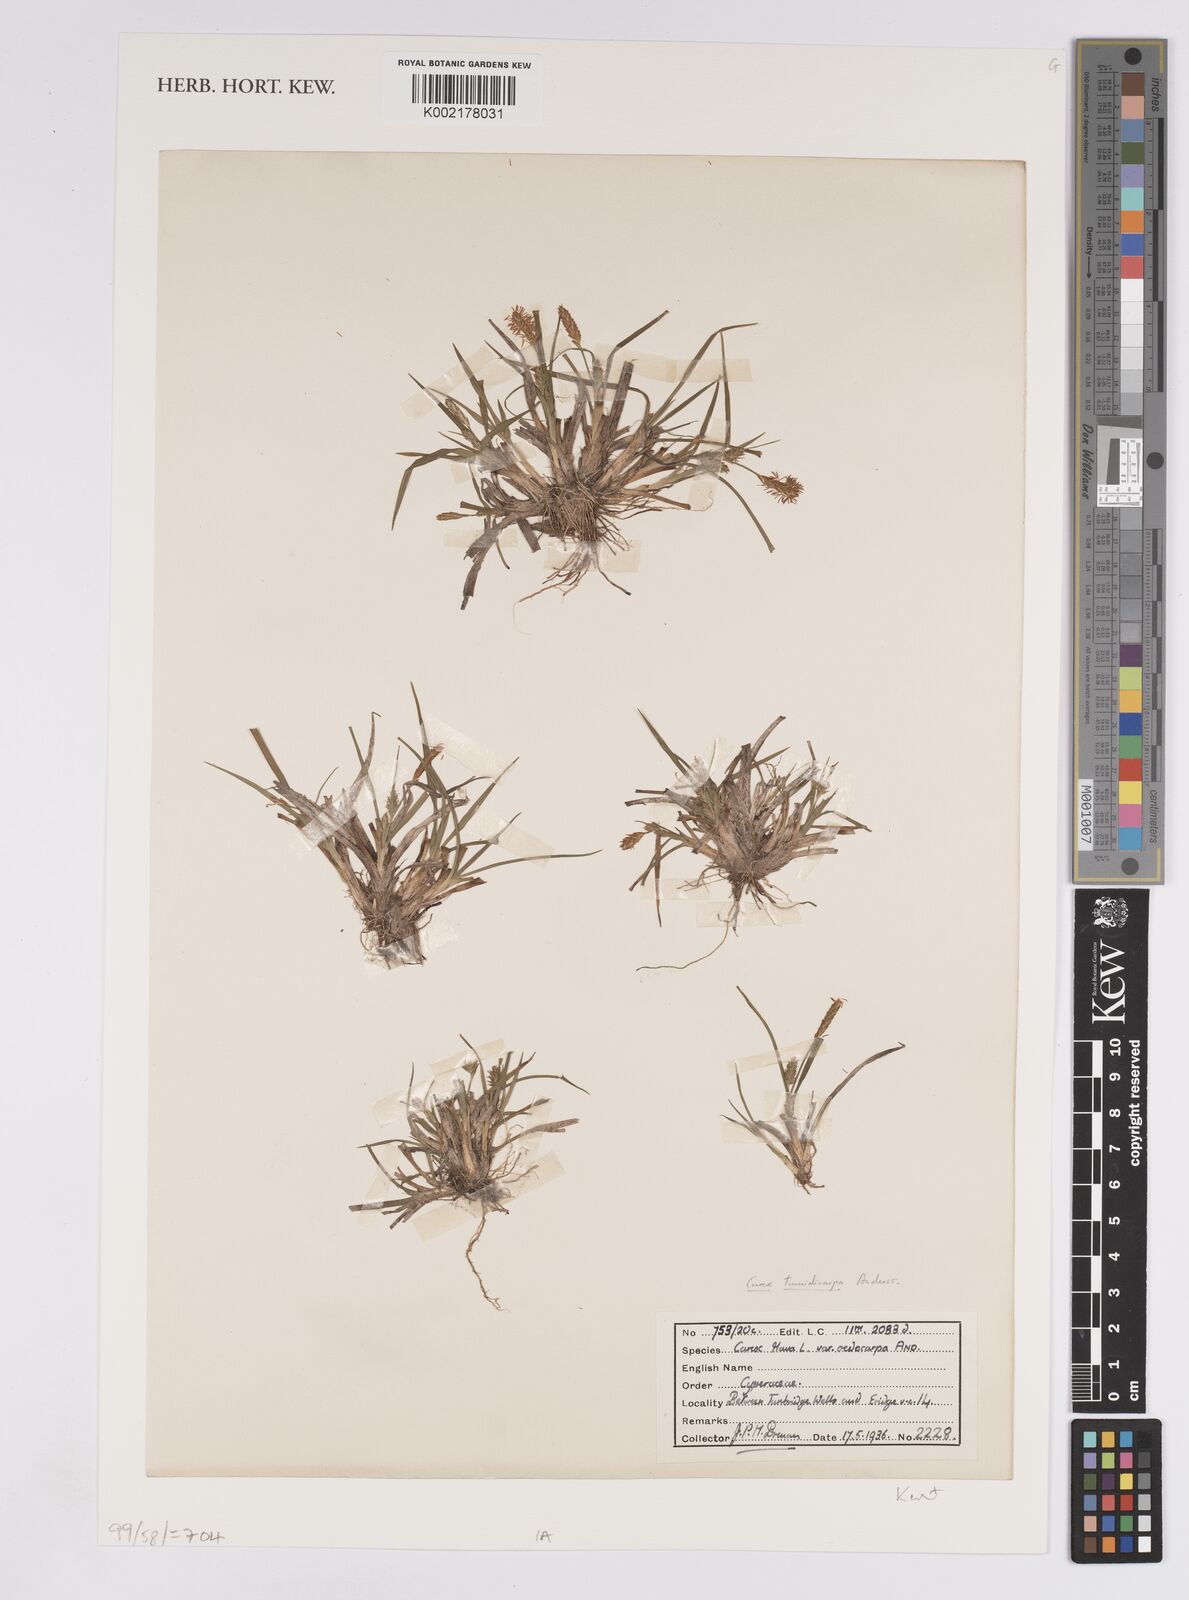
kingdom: Plantae
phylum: Tracheophyta
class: Liliopsida
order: Poales
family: Cyperaceae
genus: Carex
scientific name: Carex demissa
